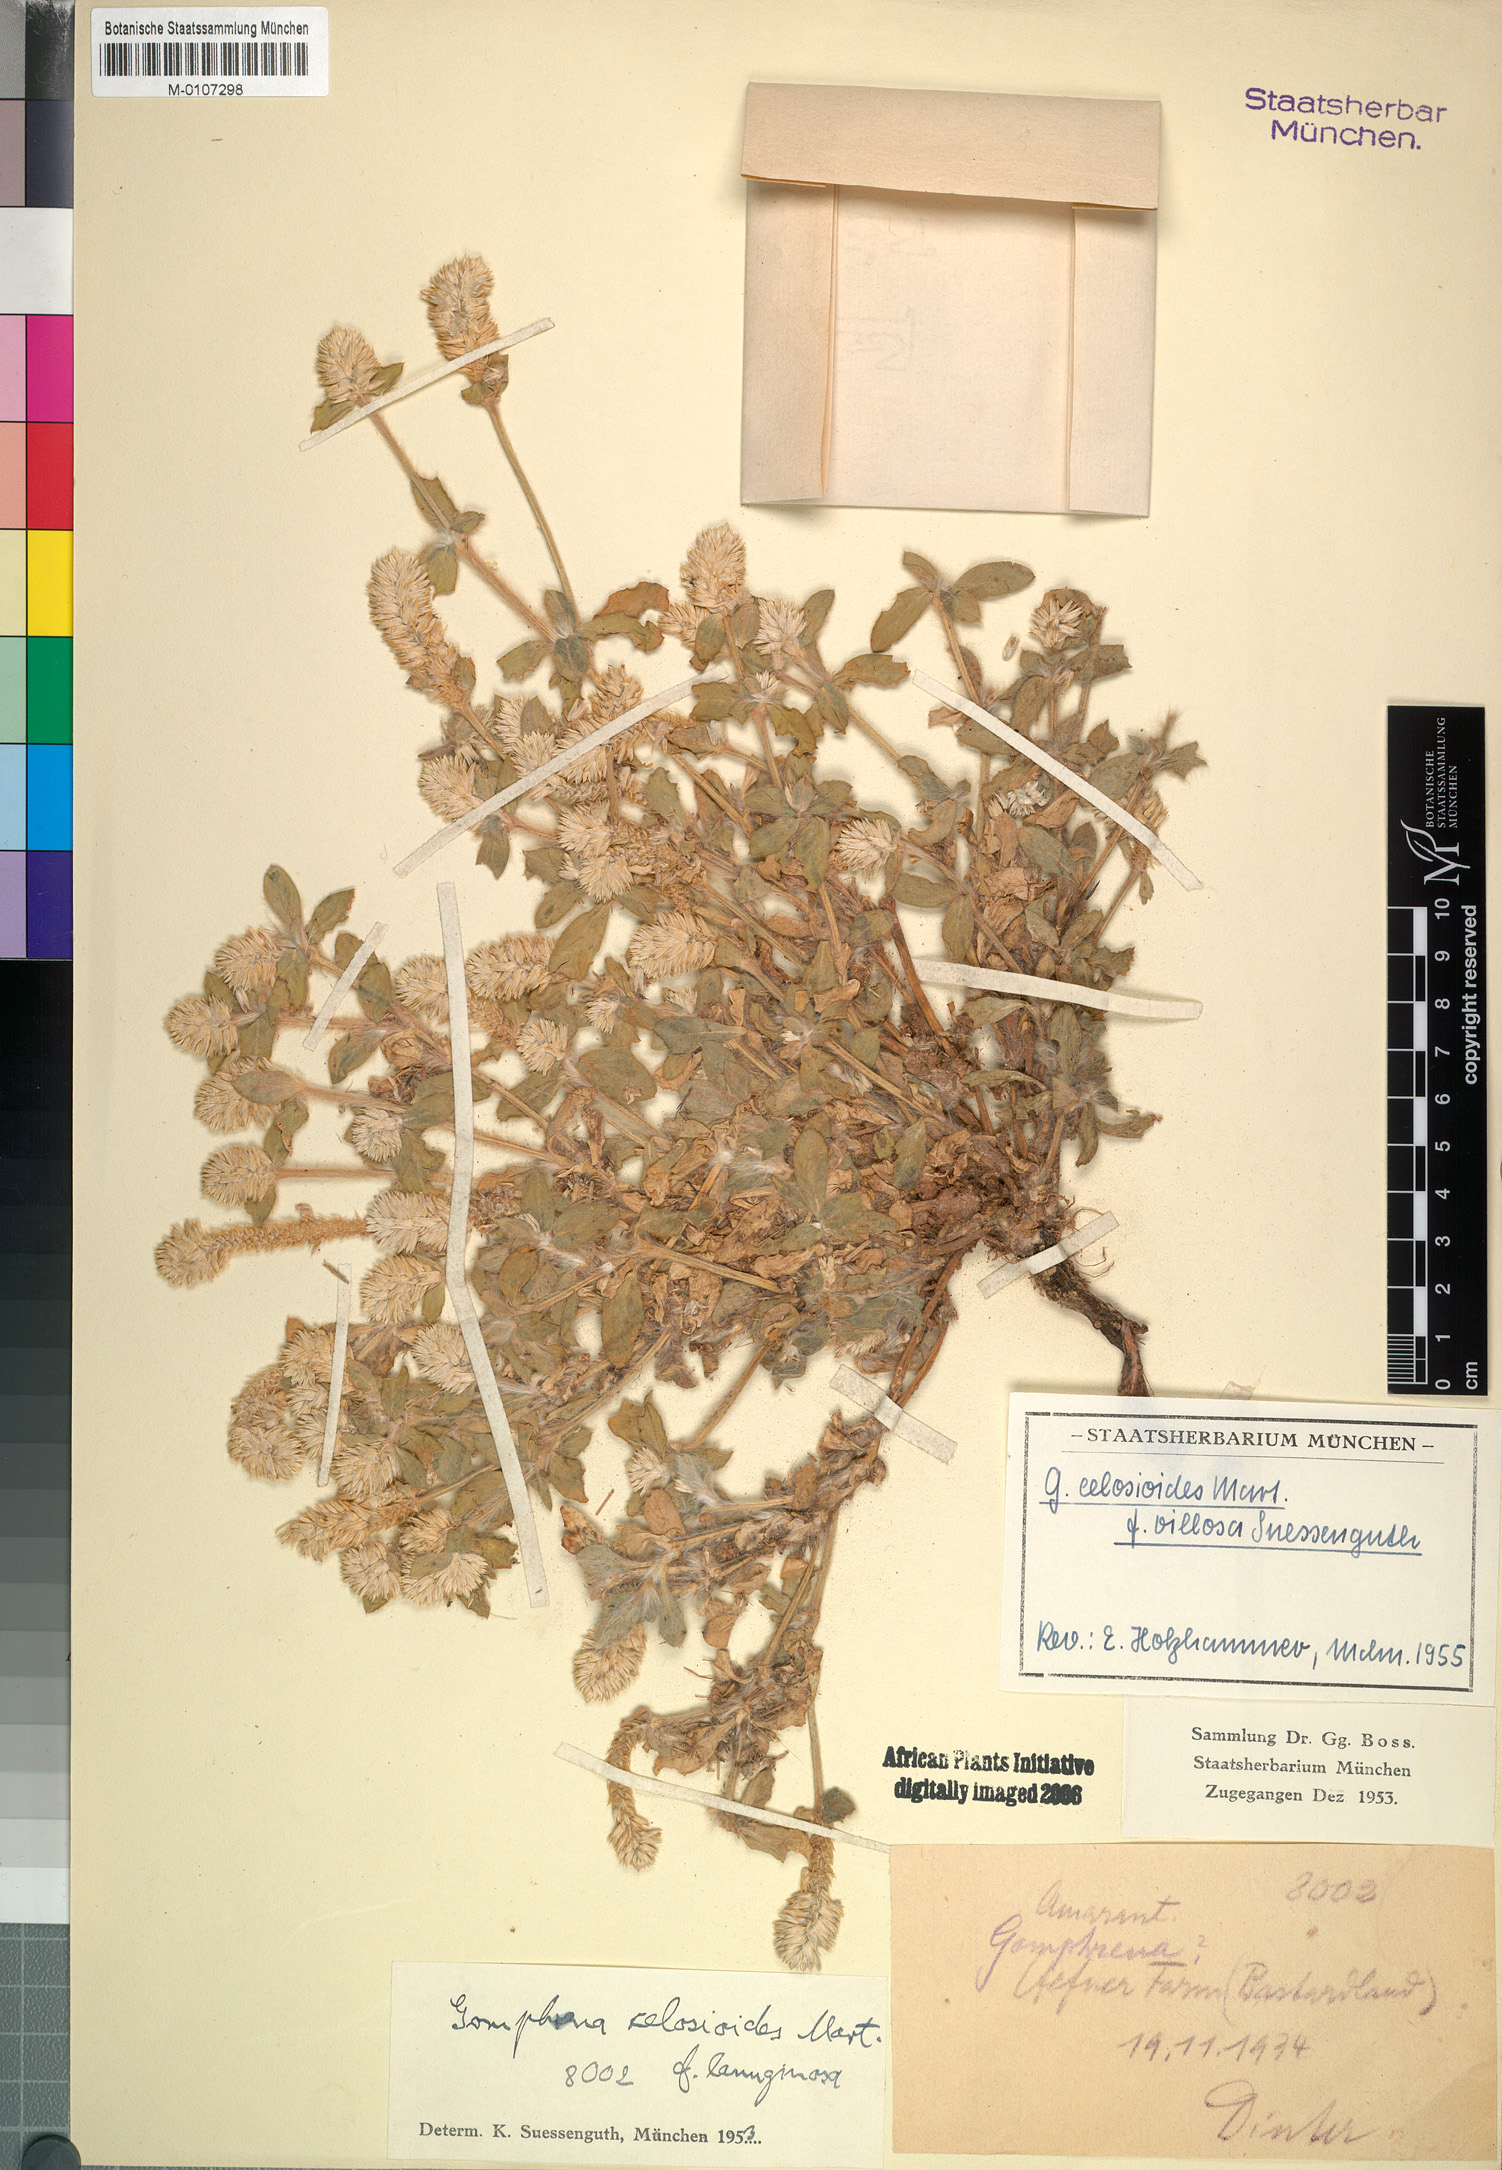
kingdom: Plantae
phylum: Tracheophyta
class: Magnoliopsida
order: Caryophyllales
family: Amaranthaceae
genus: Gomphrena
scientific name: Gomphrena celosioides
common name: Gomphrena-weed
